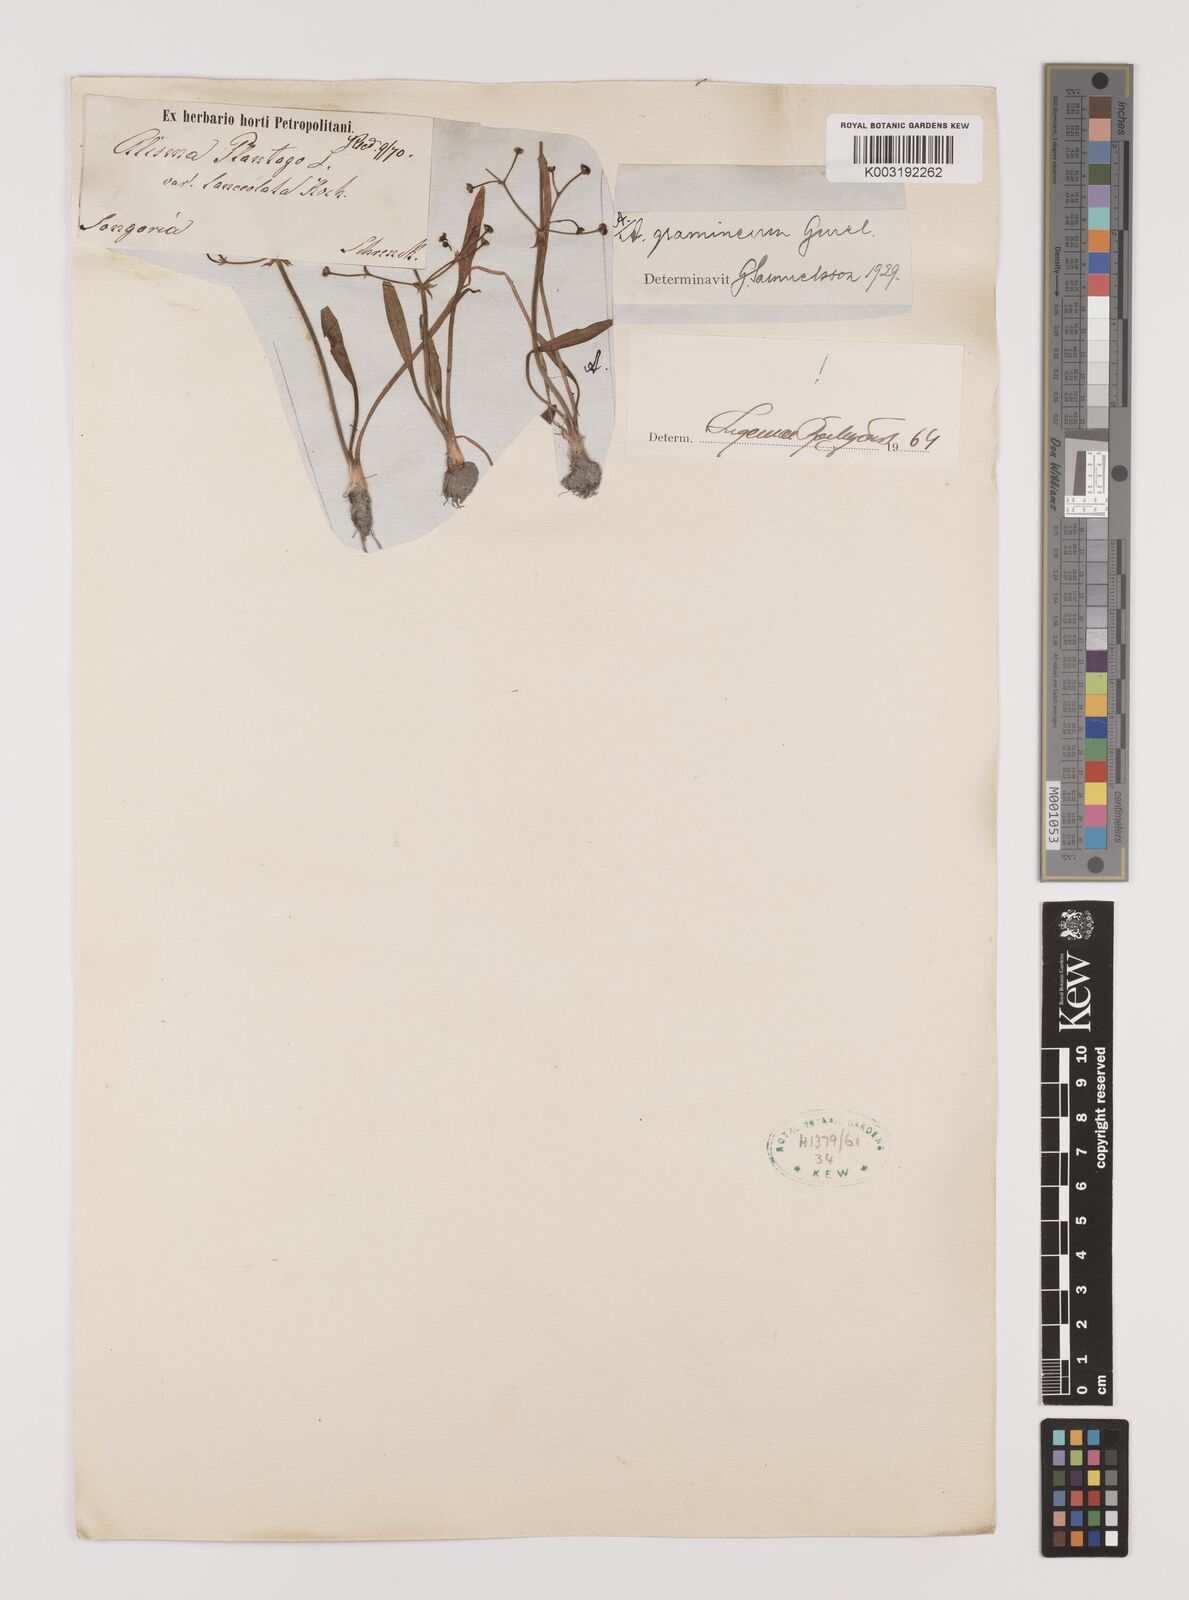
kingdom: Plantae
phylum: Tracheophyta
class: Liliopsida
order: Alismatales
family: Alismataceae
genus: Alisma
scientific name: Alisma gramineum
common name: Ribbon-leaved water-plantain
